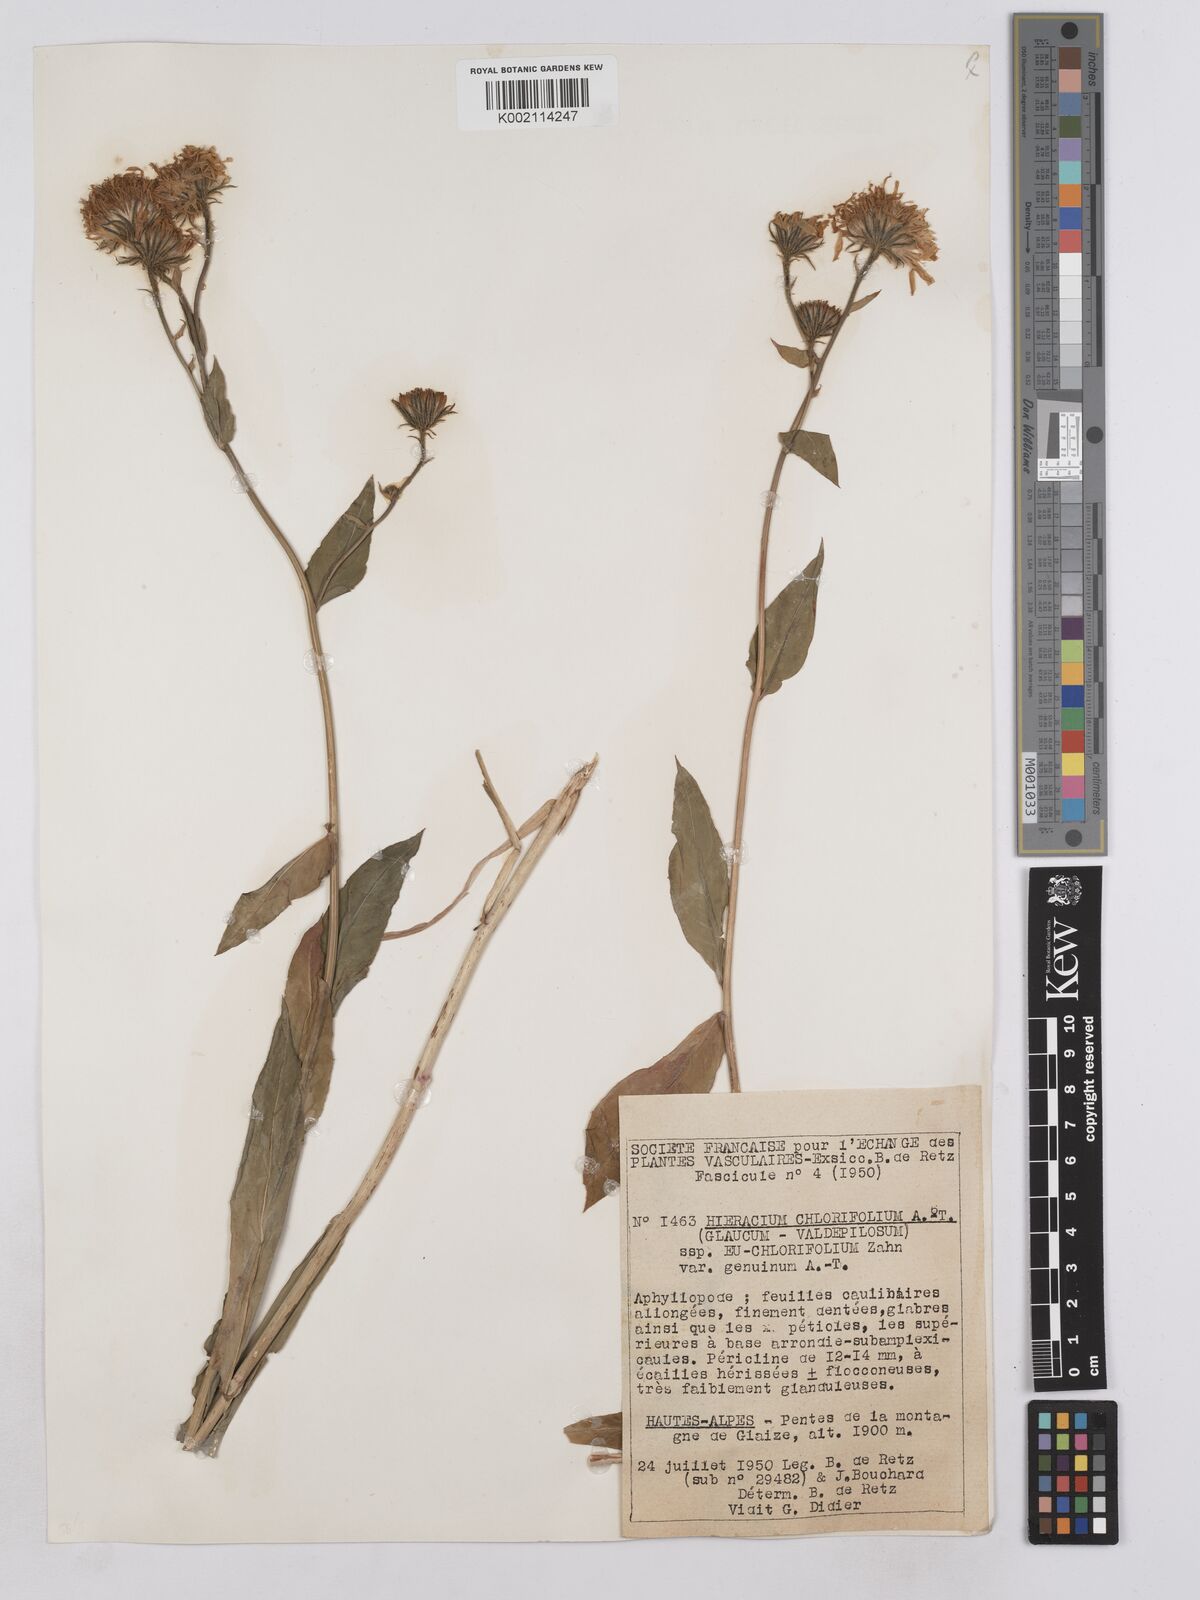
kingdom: Plantae
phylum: Tracheophyta
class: Magnoliopsida
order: Asterales
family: Asteraceae
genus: Hieracium
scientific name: Hieracium chlorifolium
